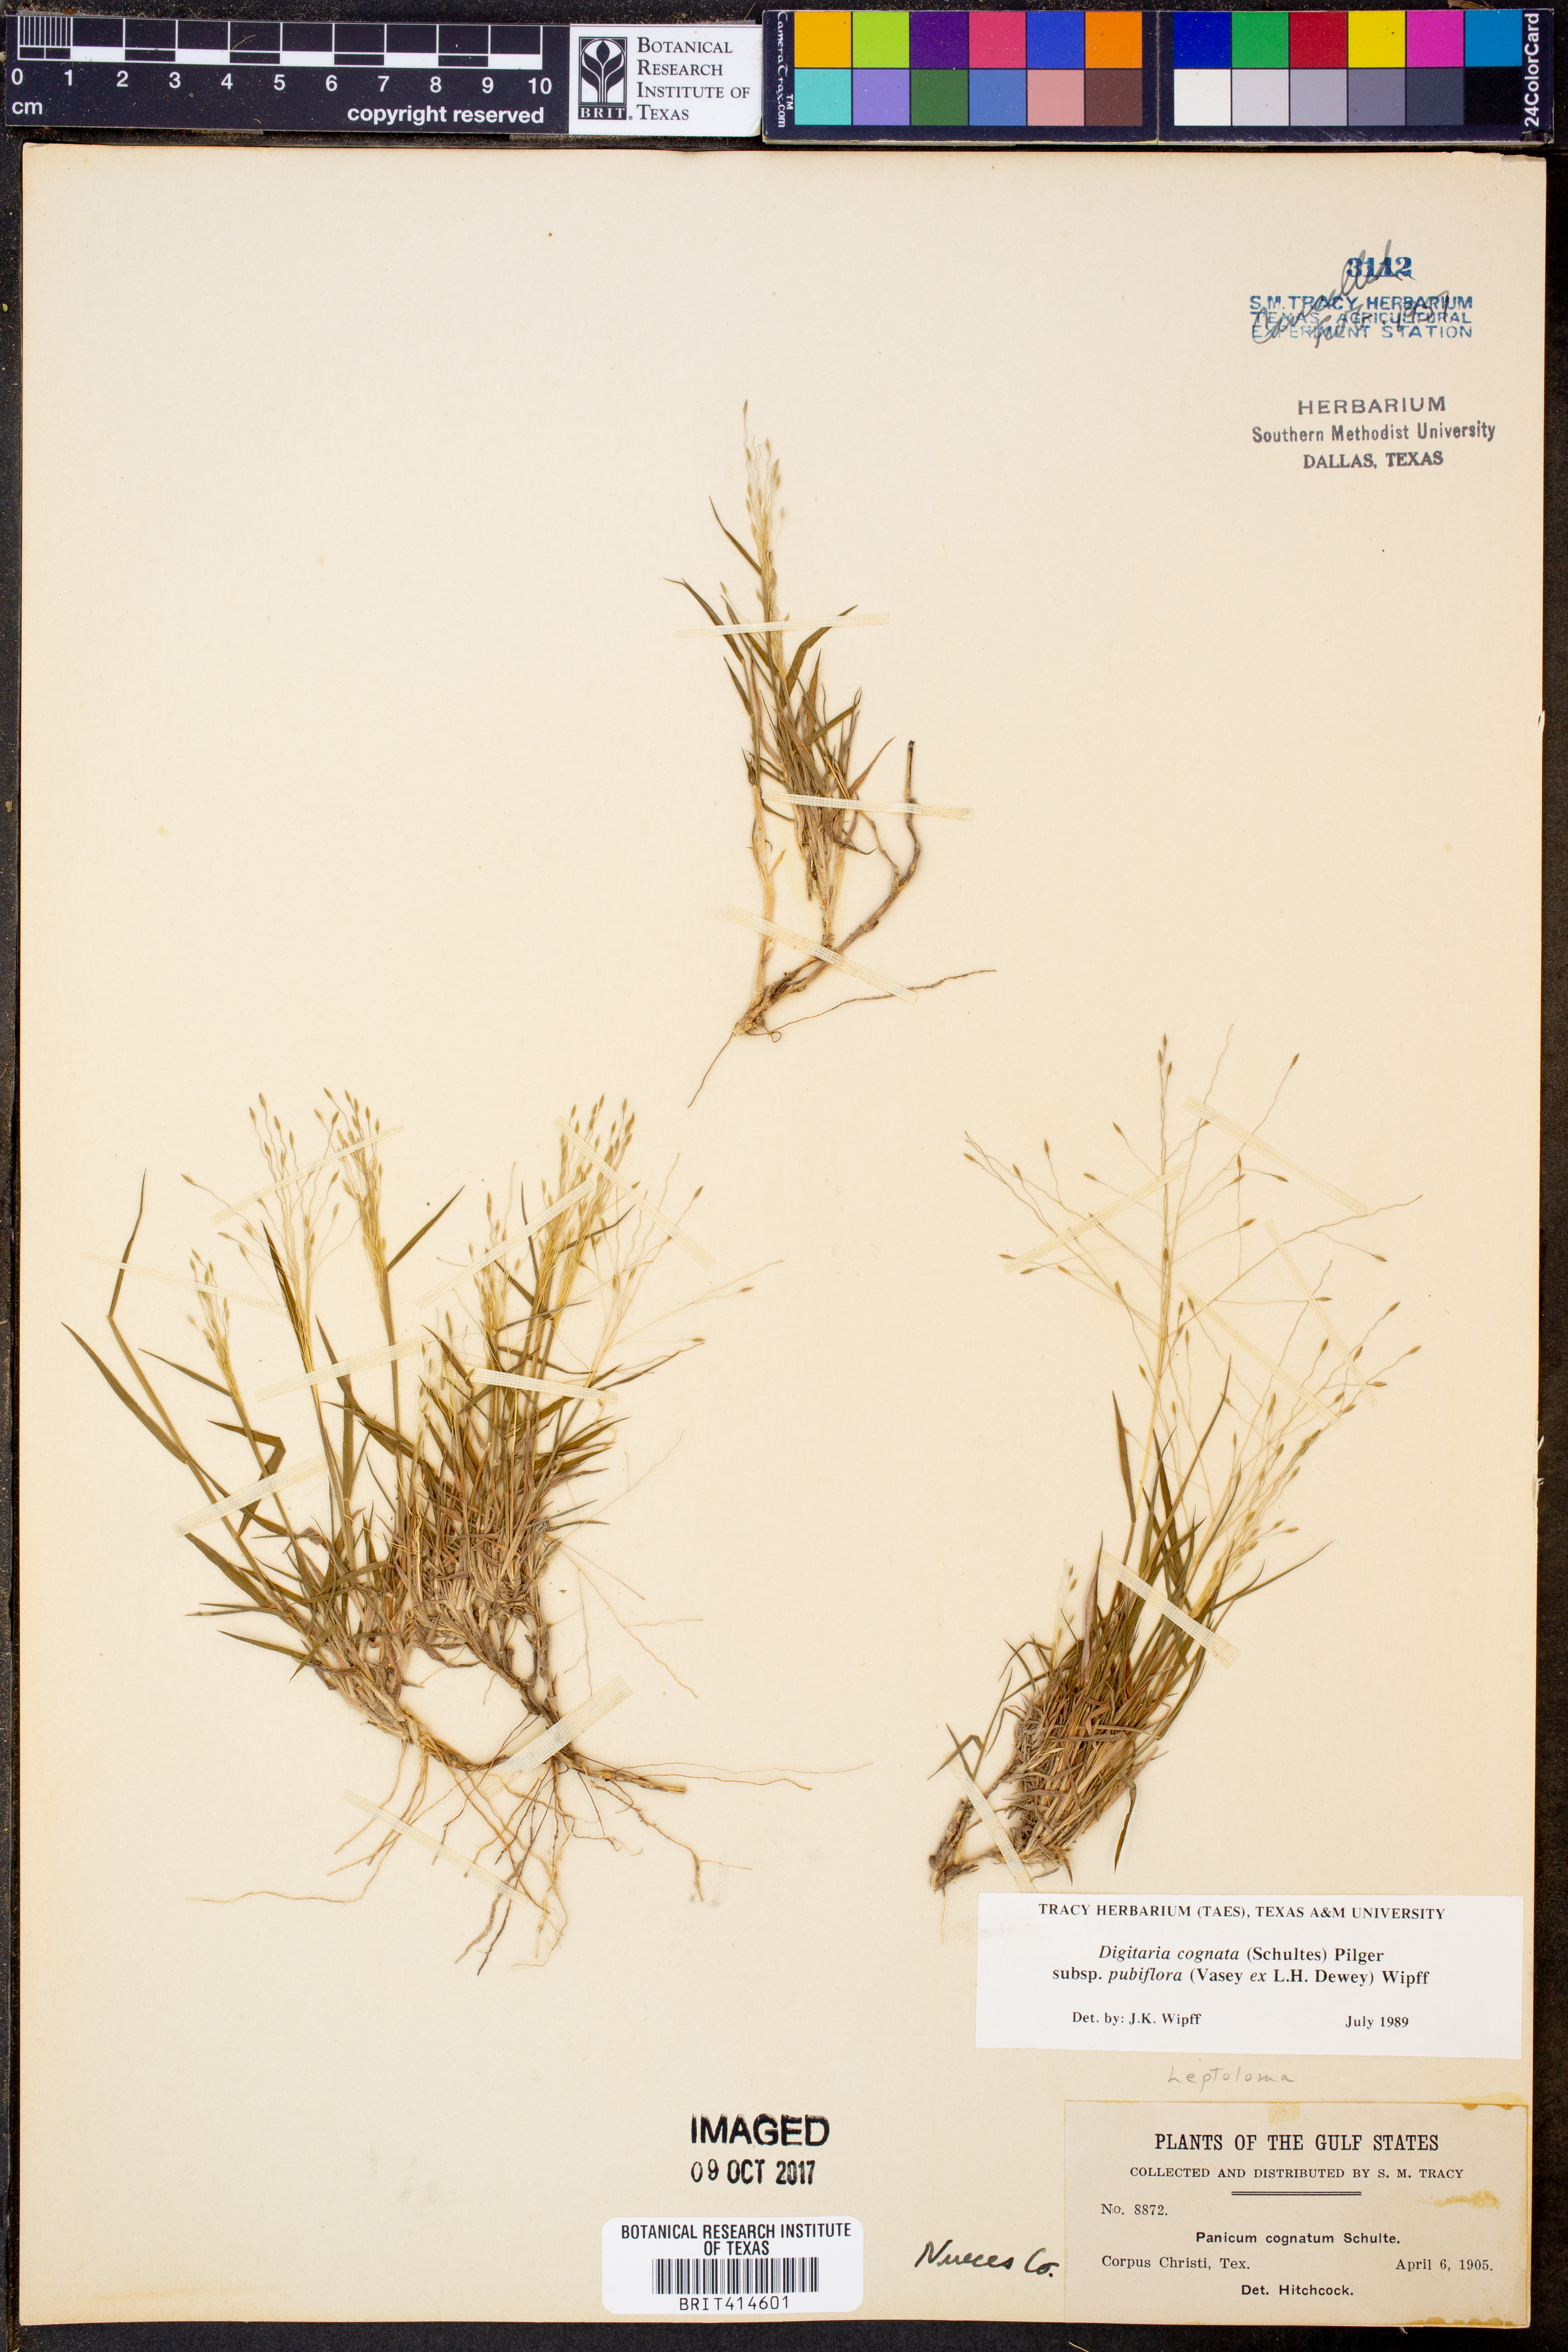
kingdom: Plantae
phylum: Tracheophyta
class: Liliopsida
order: Poales
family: Poaceae
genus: Digitaria
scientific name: Digitaria cognata
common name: Fall witchgrass
